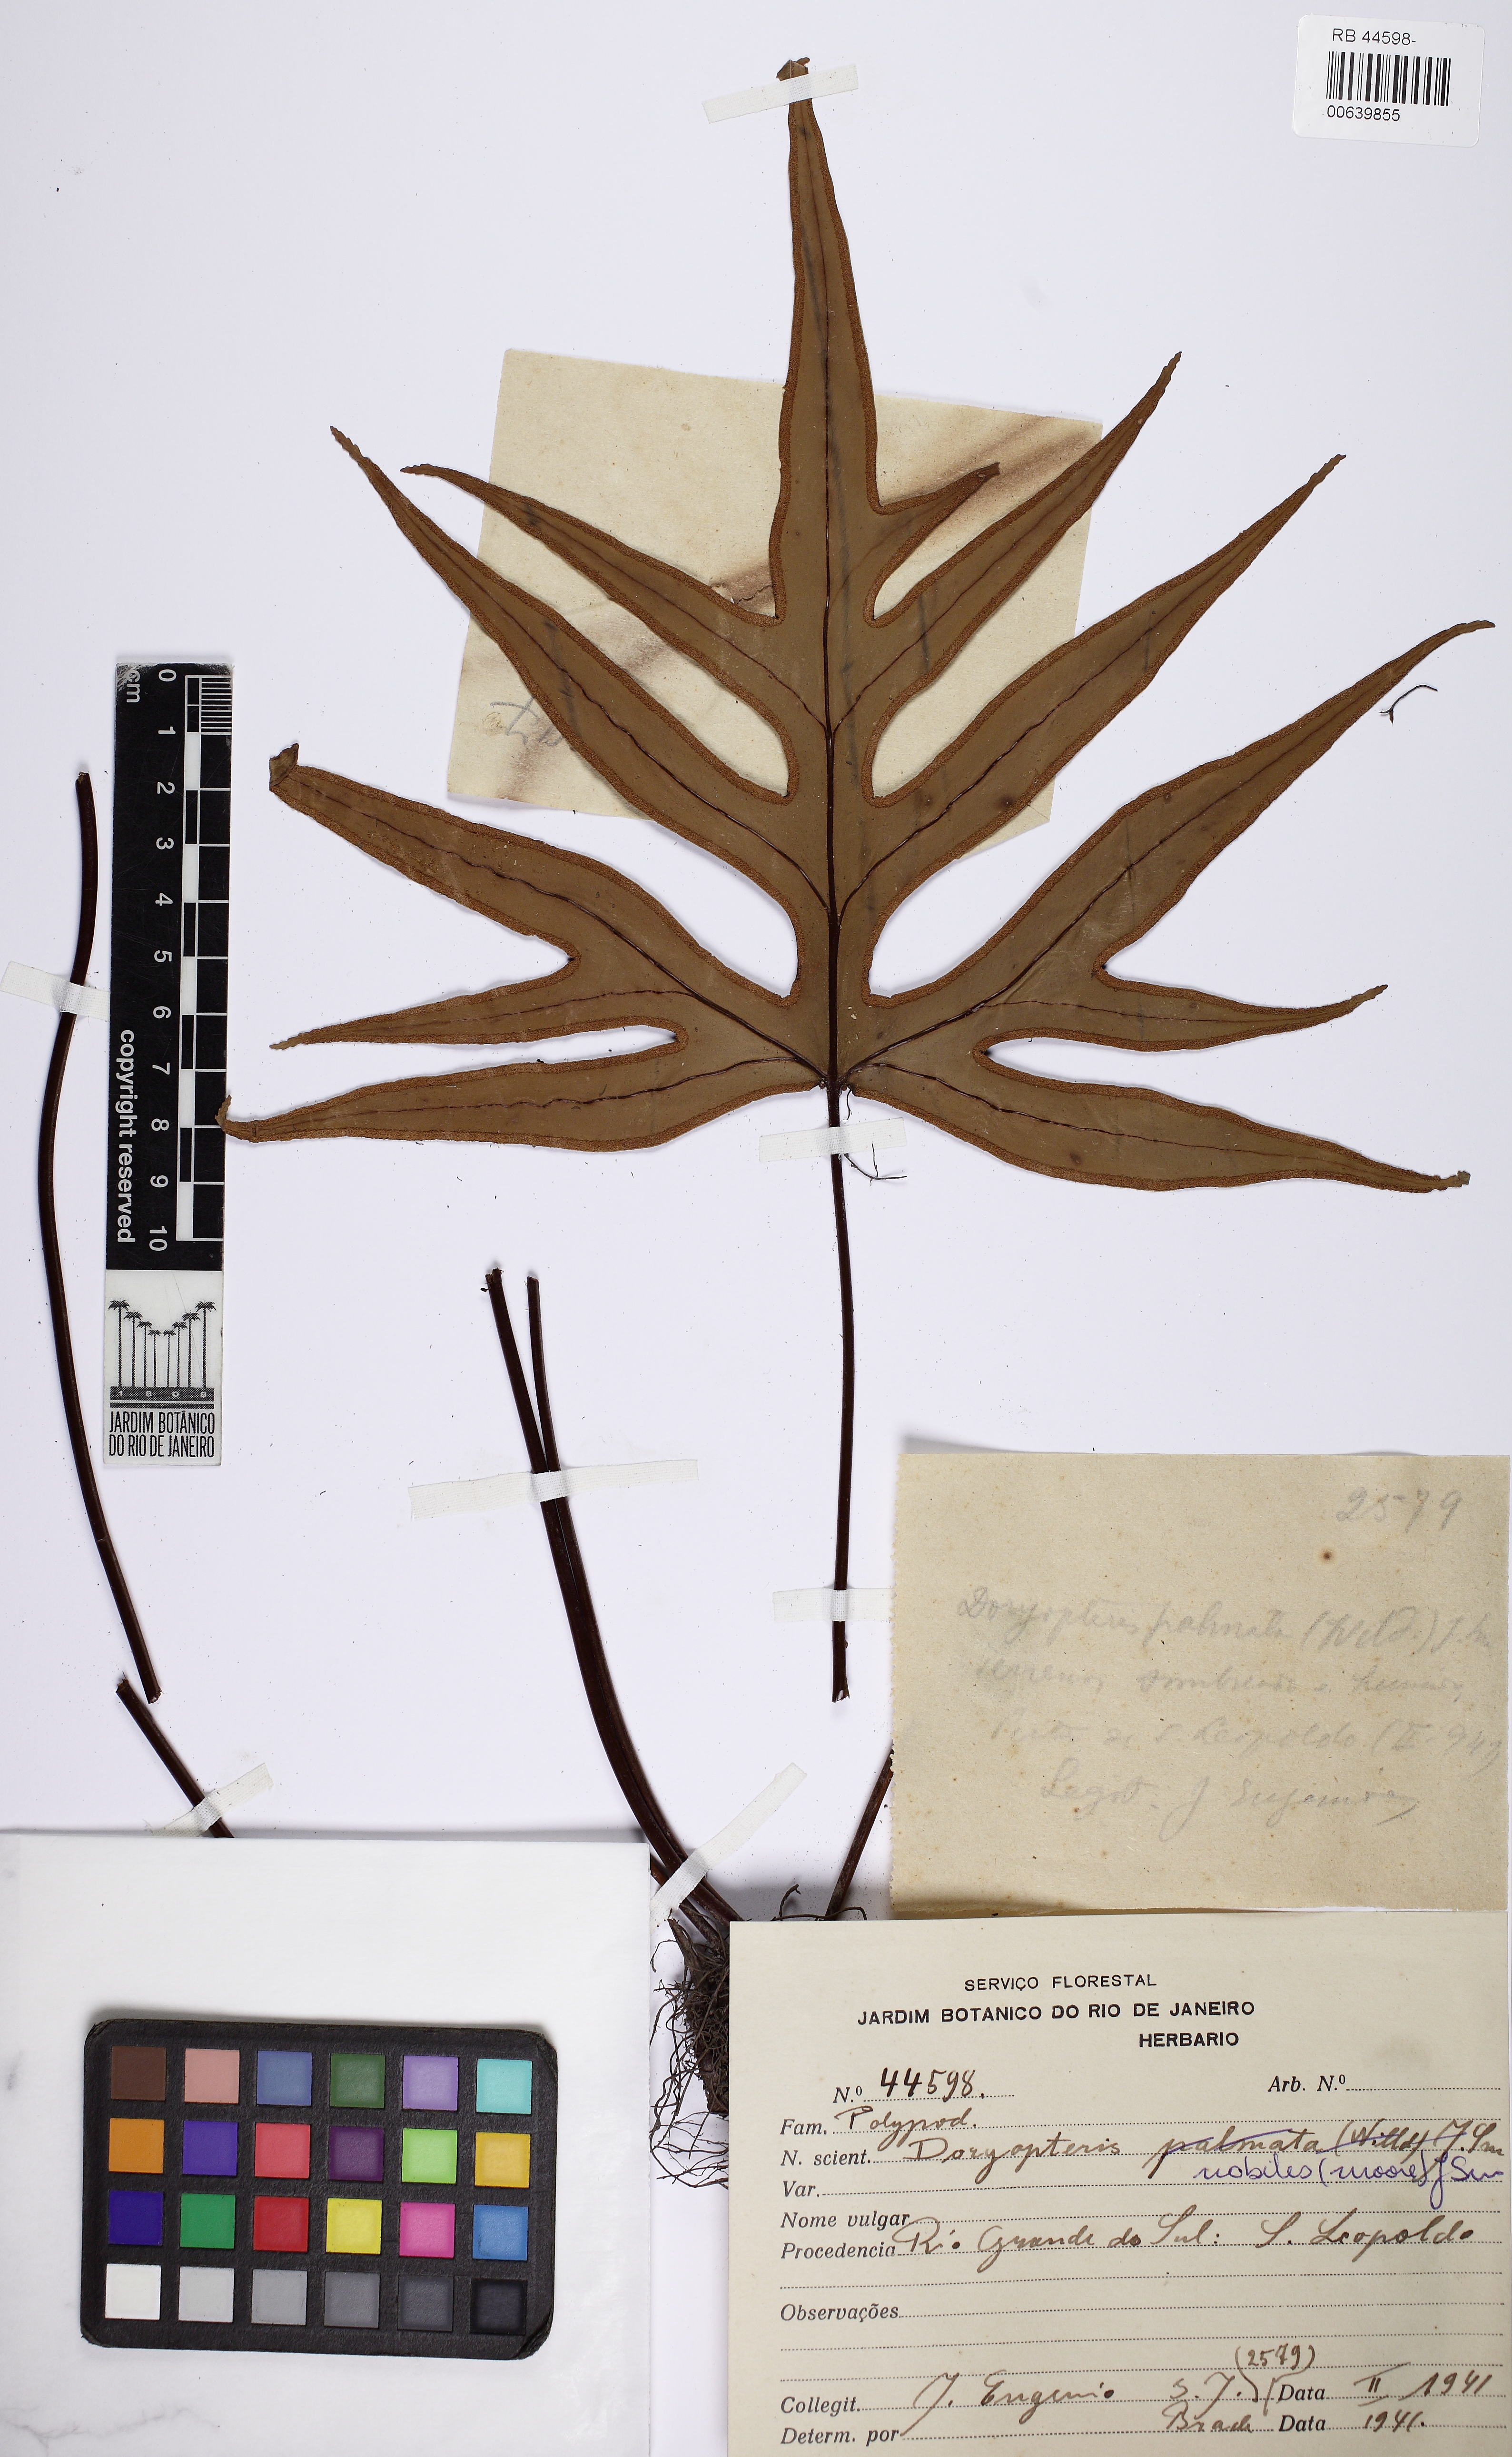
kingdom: Plantae
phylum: Tracheophyta
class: Polypodiopsida
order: Polypodiales
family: Pteridaceae
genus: Hemionitis
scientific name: Hemionitis Doryopteris patula
